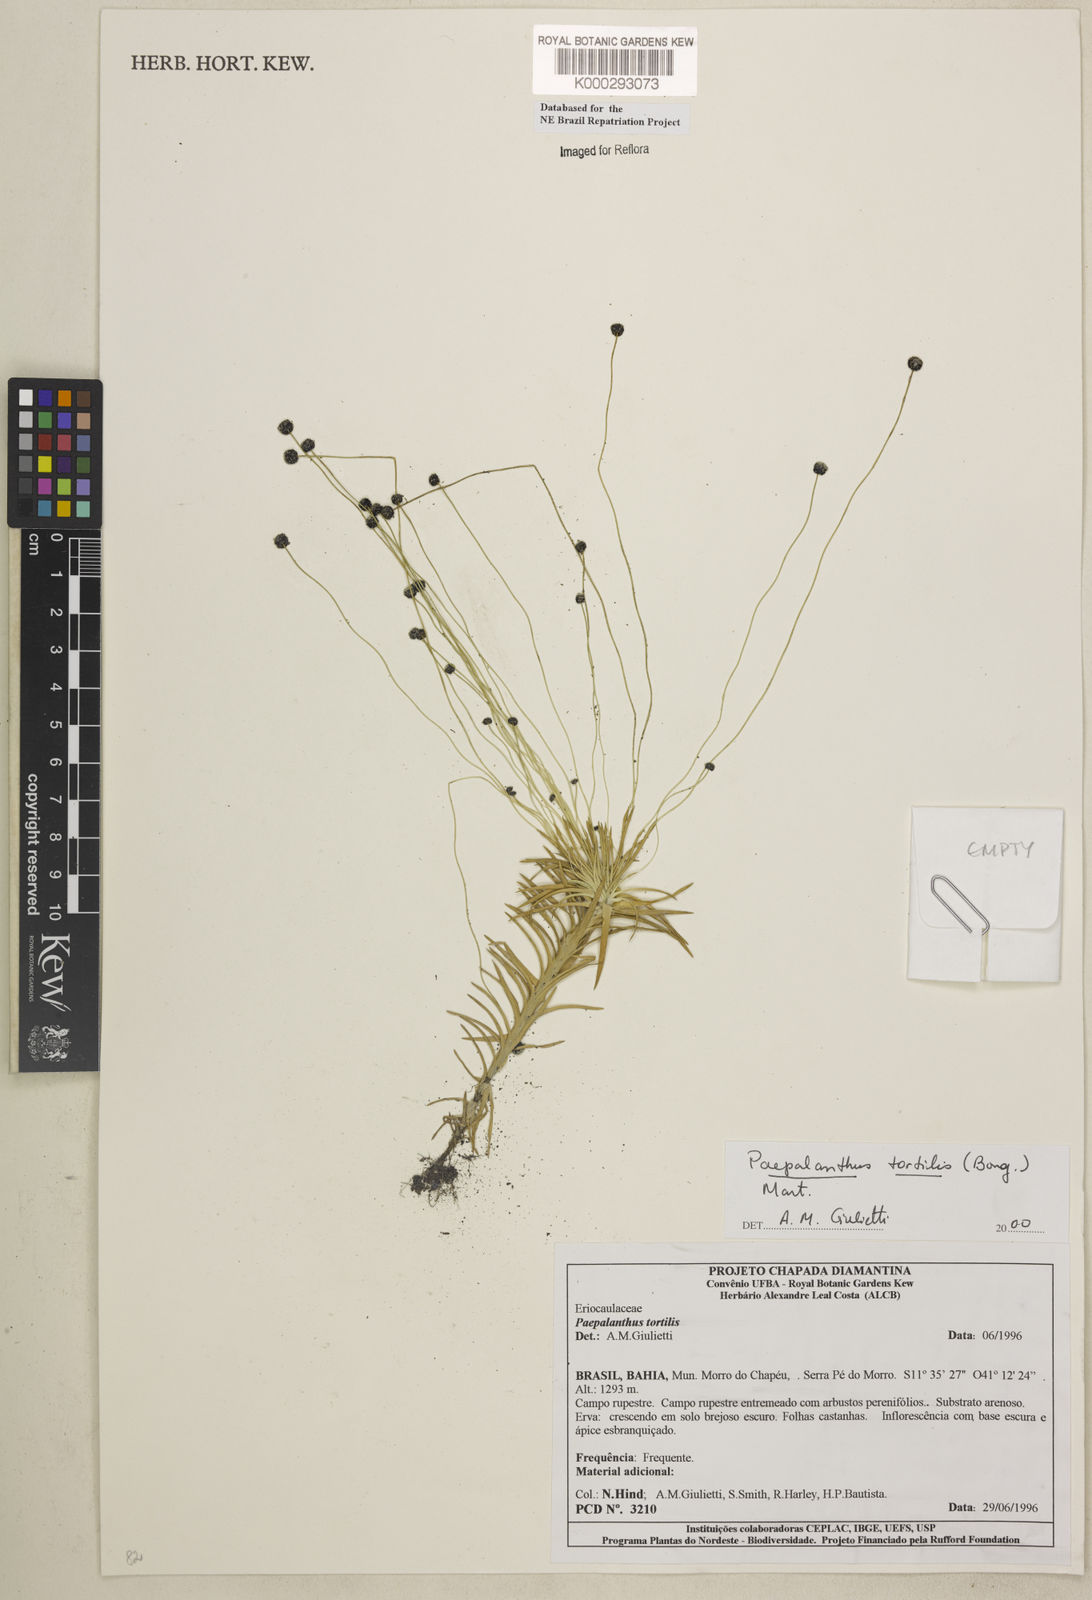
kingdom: Plantae
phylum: Tracheophyta
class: Liliopsida
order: Poales
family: Eriocaulaceae
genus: Paepalanthus
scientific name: Paepalanthus
